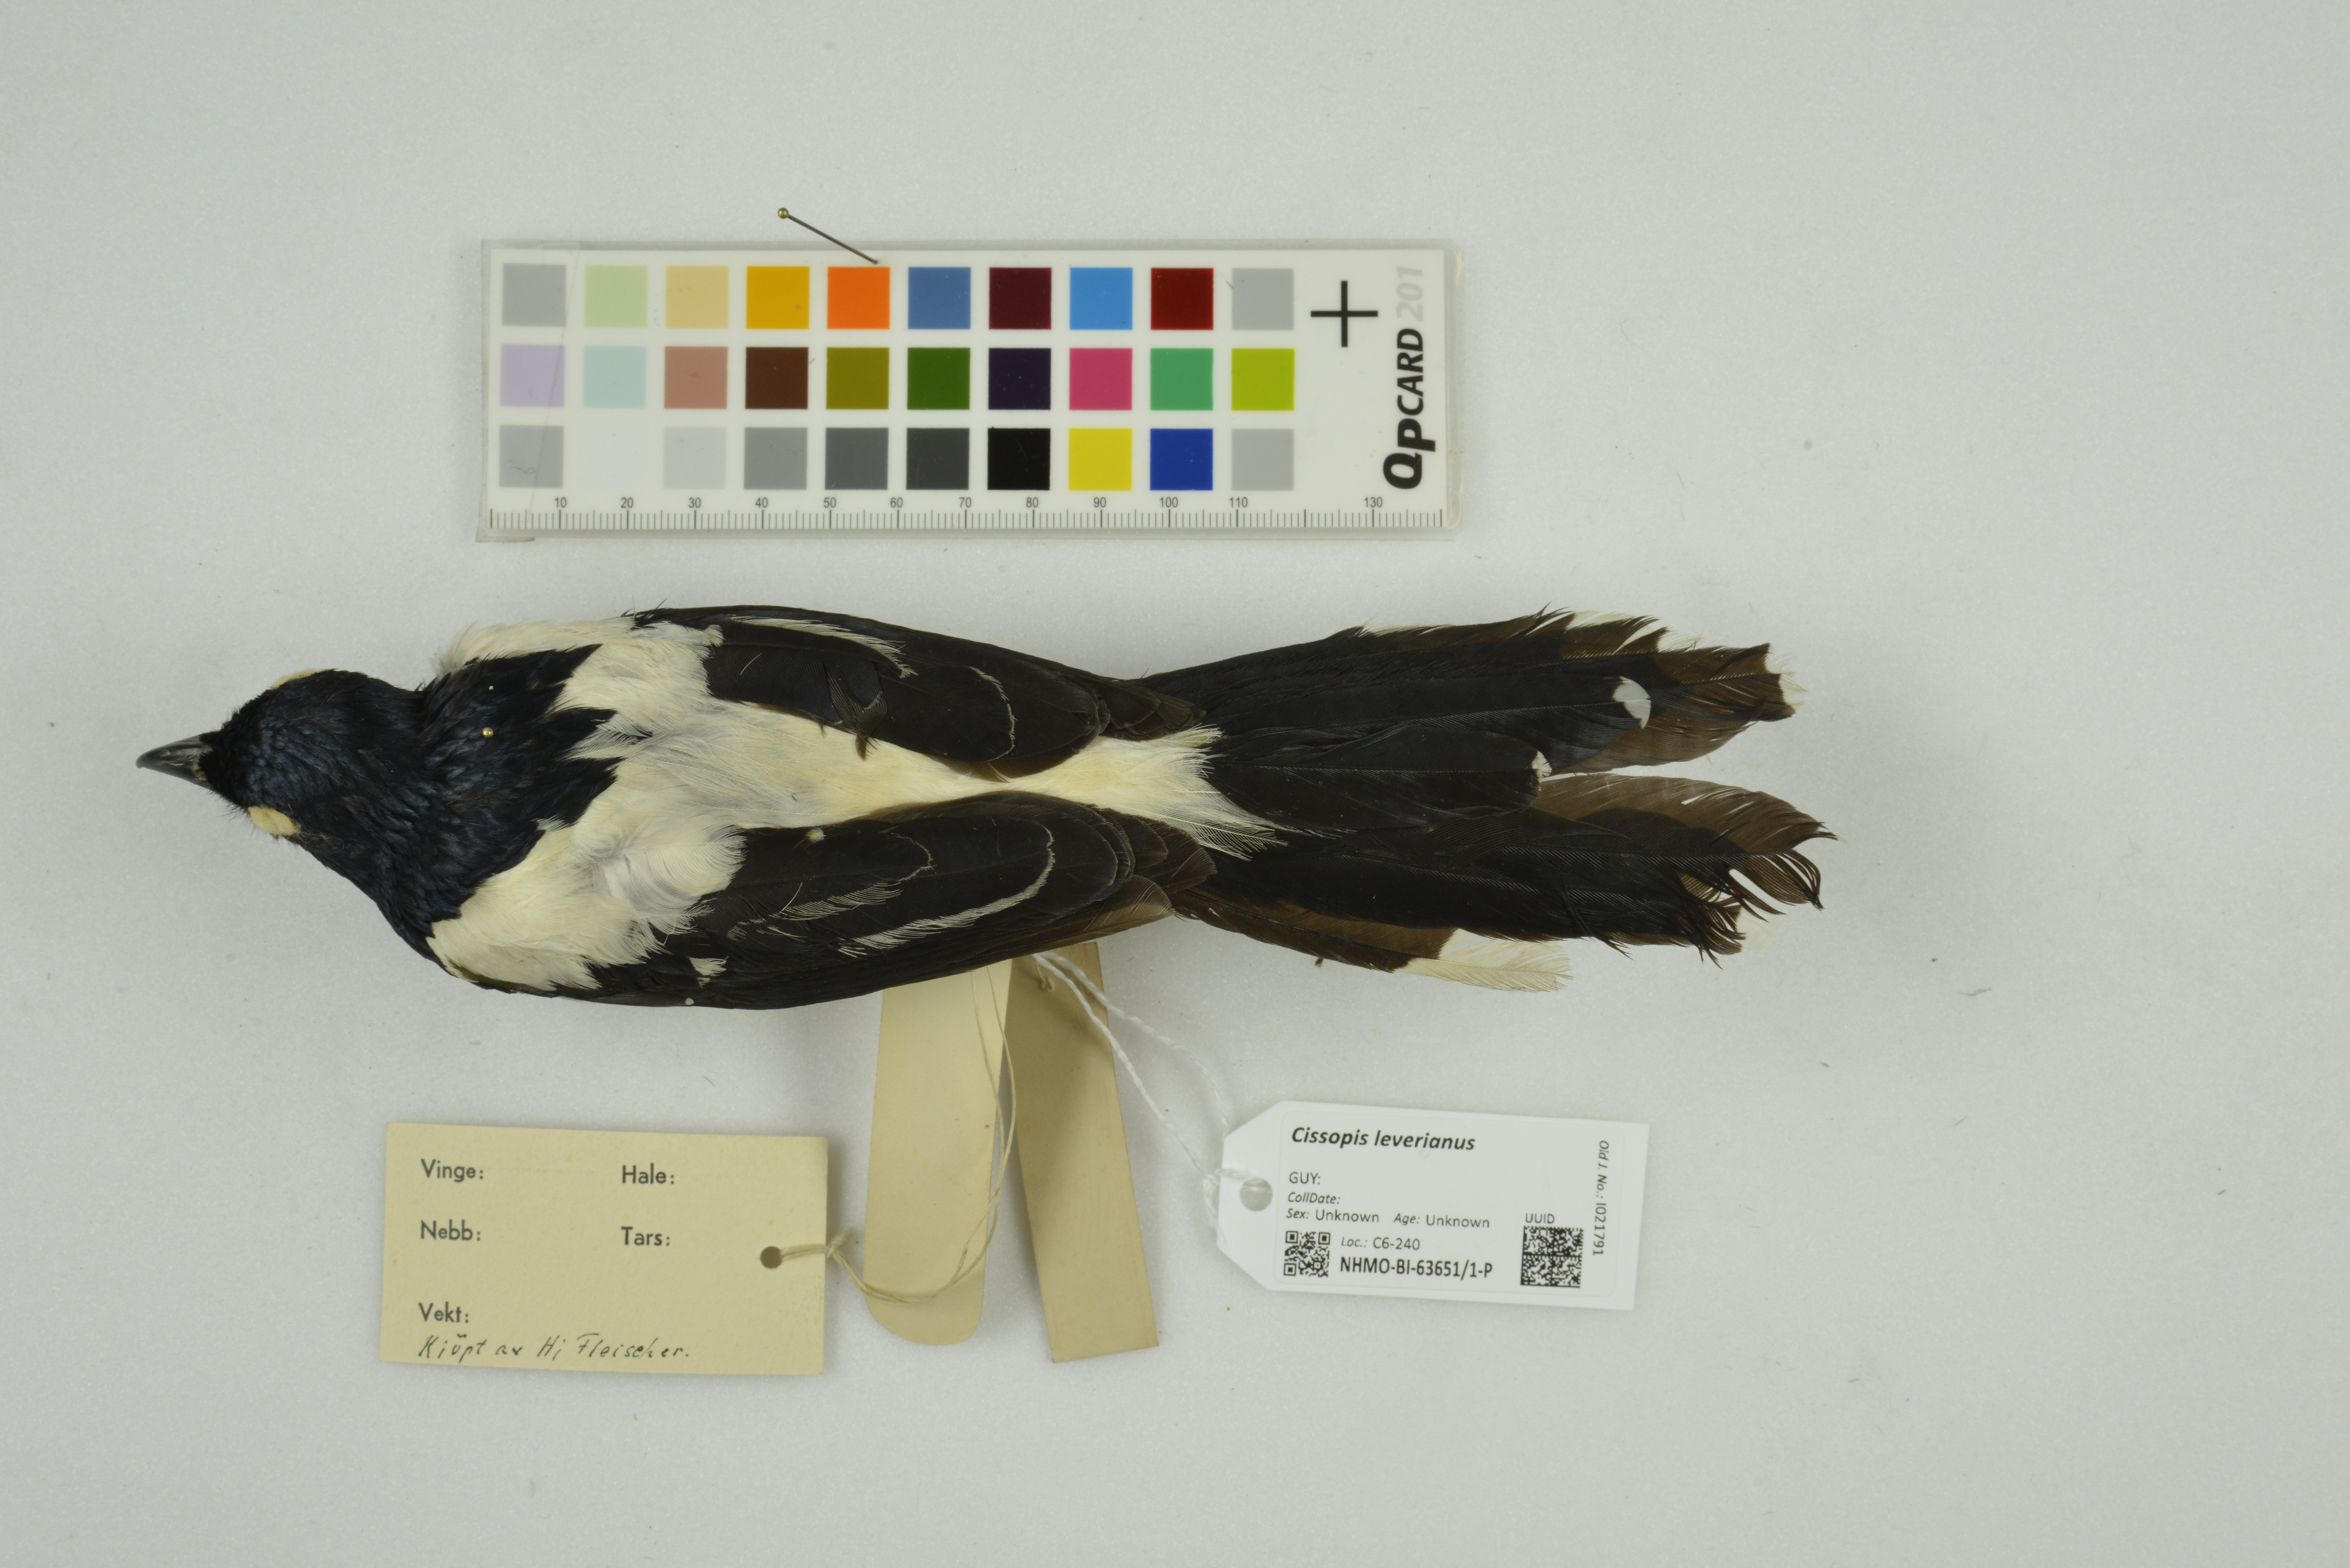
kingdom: Animalia
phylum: Chordata
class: Aves
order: Passeriformes
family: Thraupidae
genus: Cissopis
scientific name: Cissopis leverianus
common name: Magpie tanager
